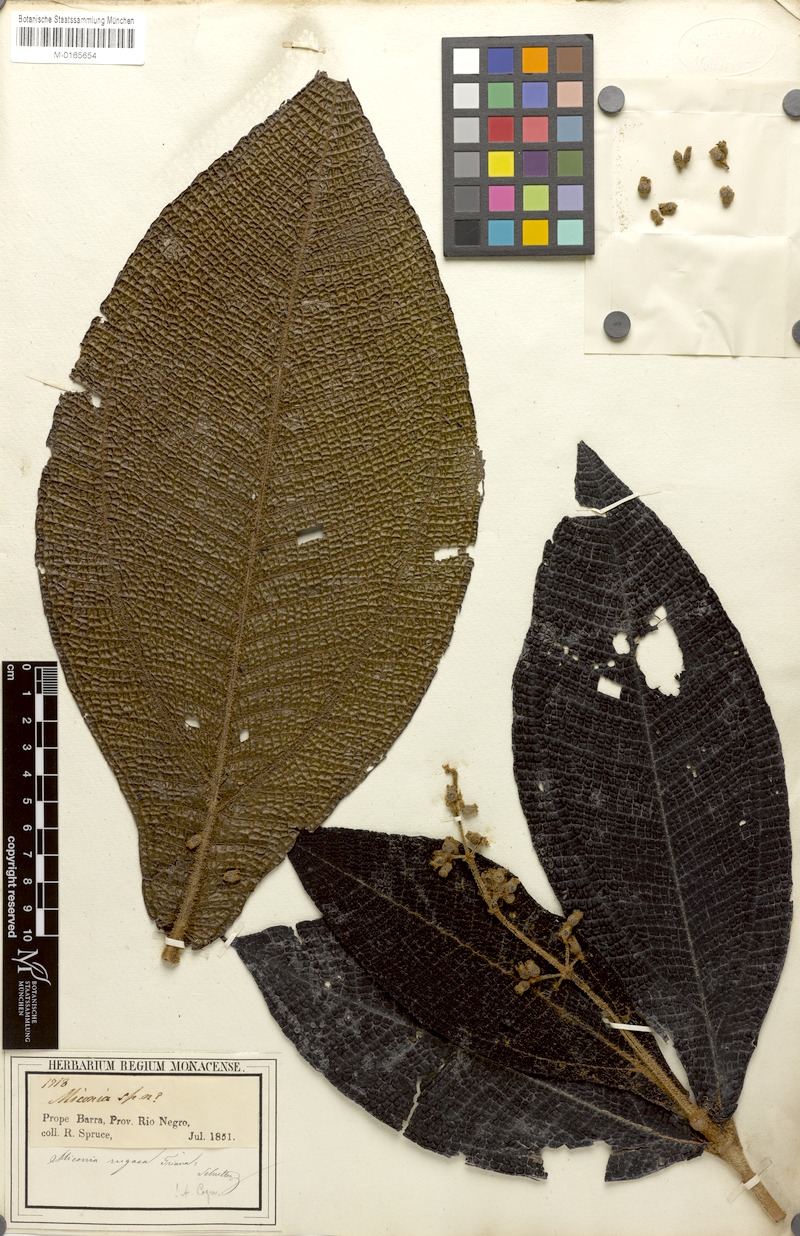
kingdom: Plantae
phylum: Tracheophyta
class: Magnoliopsida
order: Myrtales
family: Melastomataceae
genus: Miconia
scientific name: Miconia rugosa
